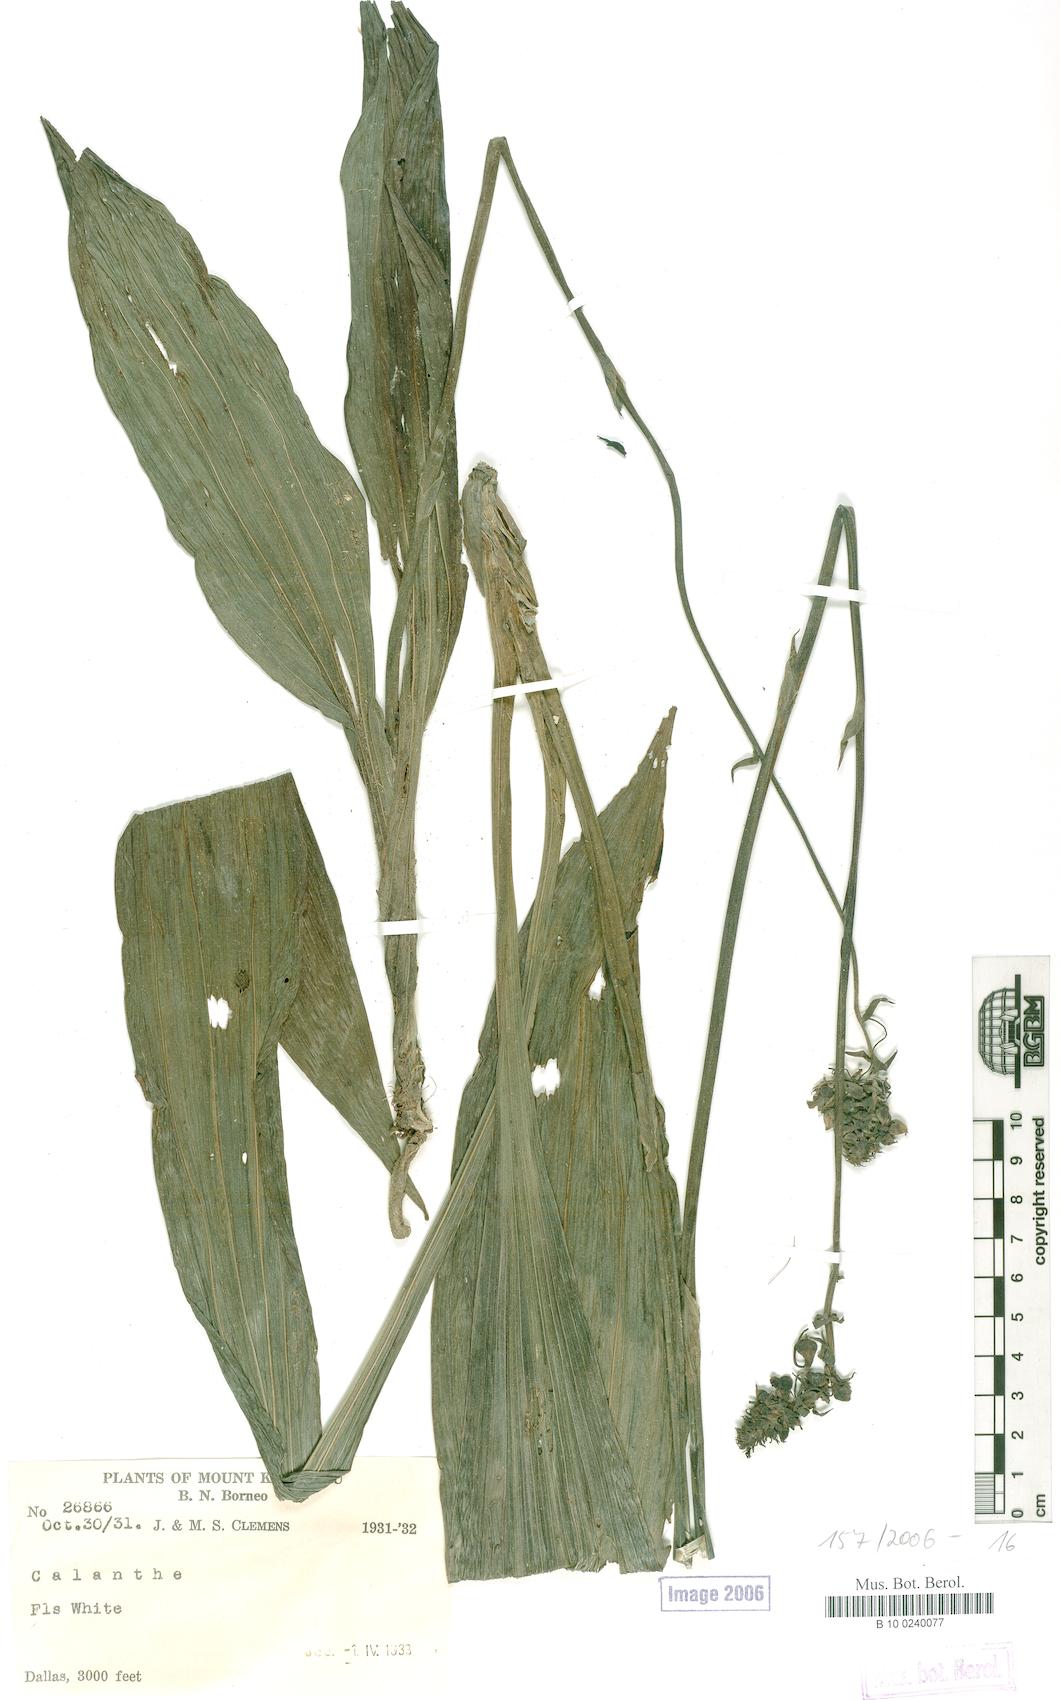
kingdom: Plantae
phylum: Tracheophyta
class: Liliopsida
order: Asparagales
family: Orchidaceae
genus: Calanthe
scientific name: Calanthe
